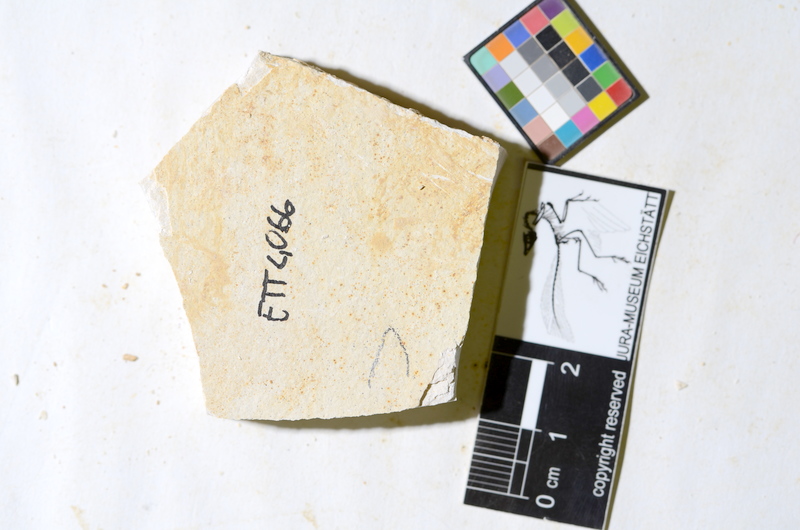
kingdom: Animalia
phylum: Chordata
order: Salmoniformes
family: Orthogonikleithridae
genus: Orthogonikleithrus
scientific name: Orthogonikleithrus hoelli
